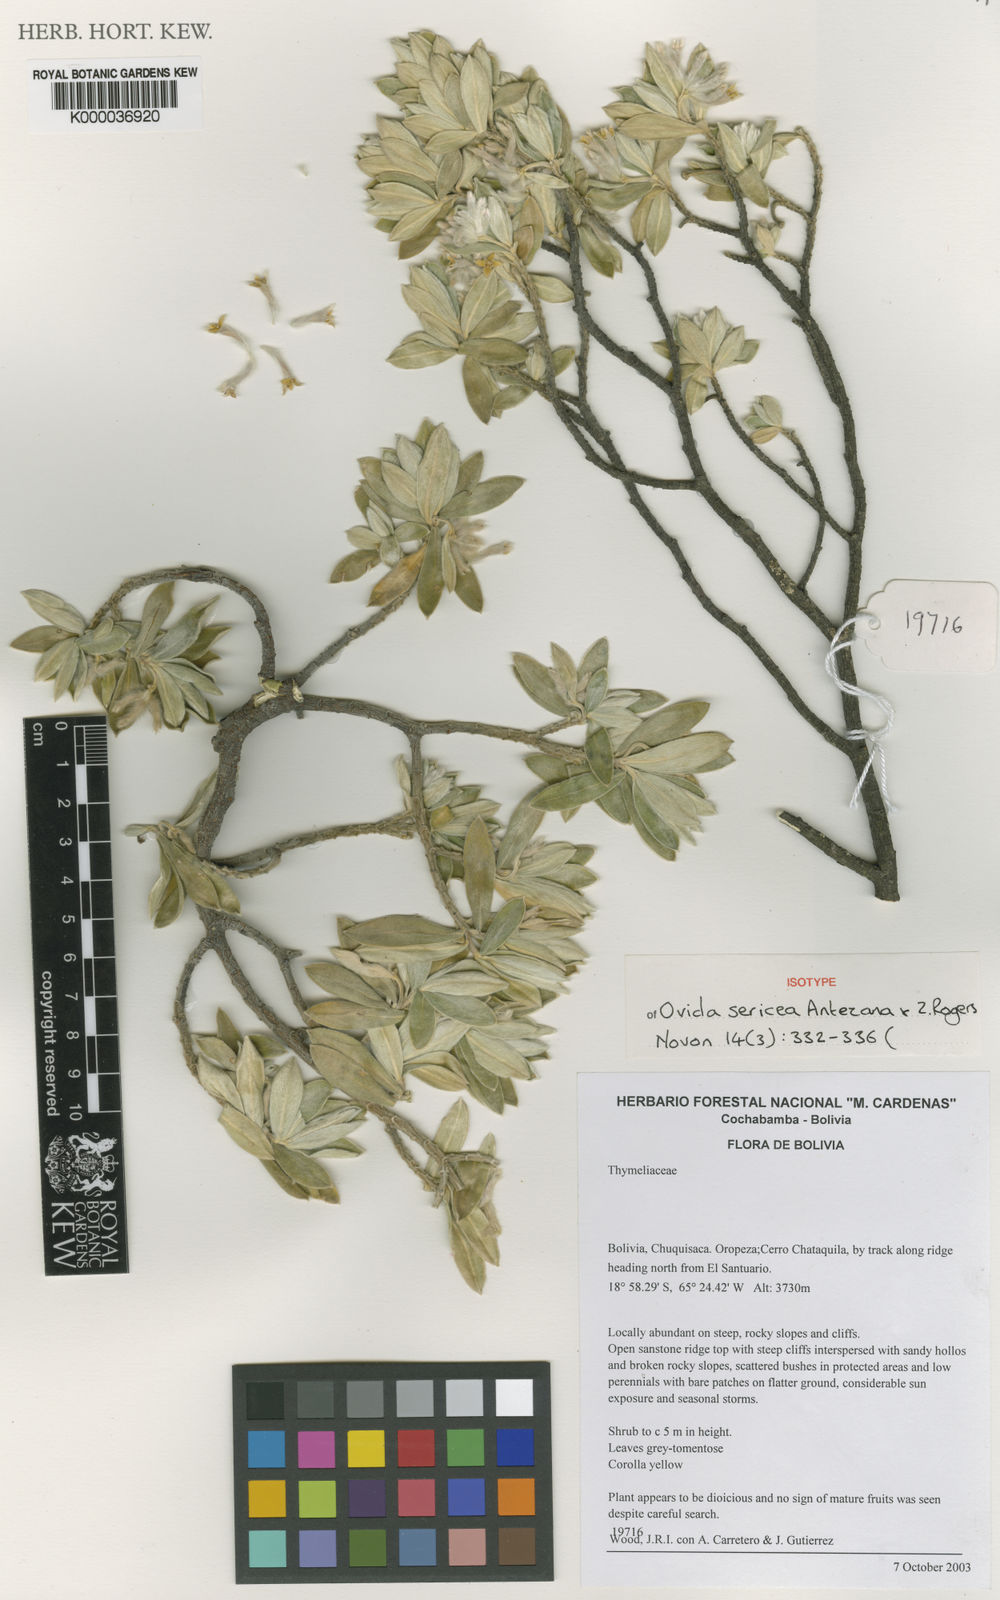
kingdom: Plantae
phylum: Tracheophyta
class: Magnoliopsida
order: Malvales
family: Thymelaeaceae
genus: Ovidia
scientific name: Ovidia sericea
